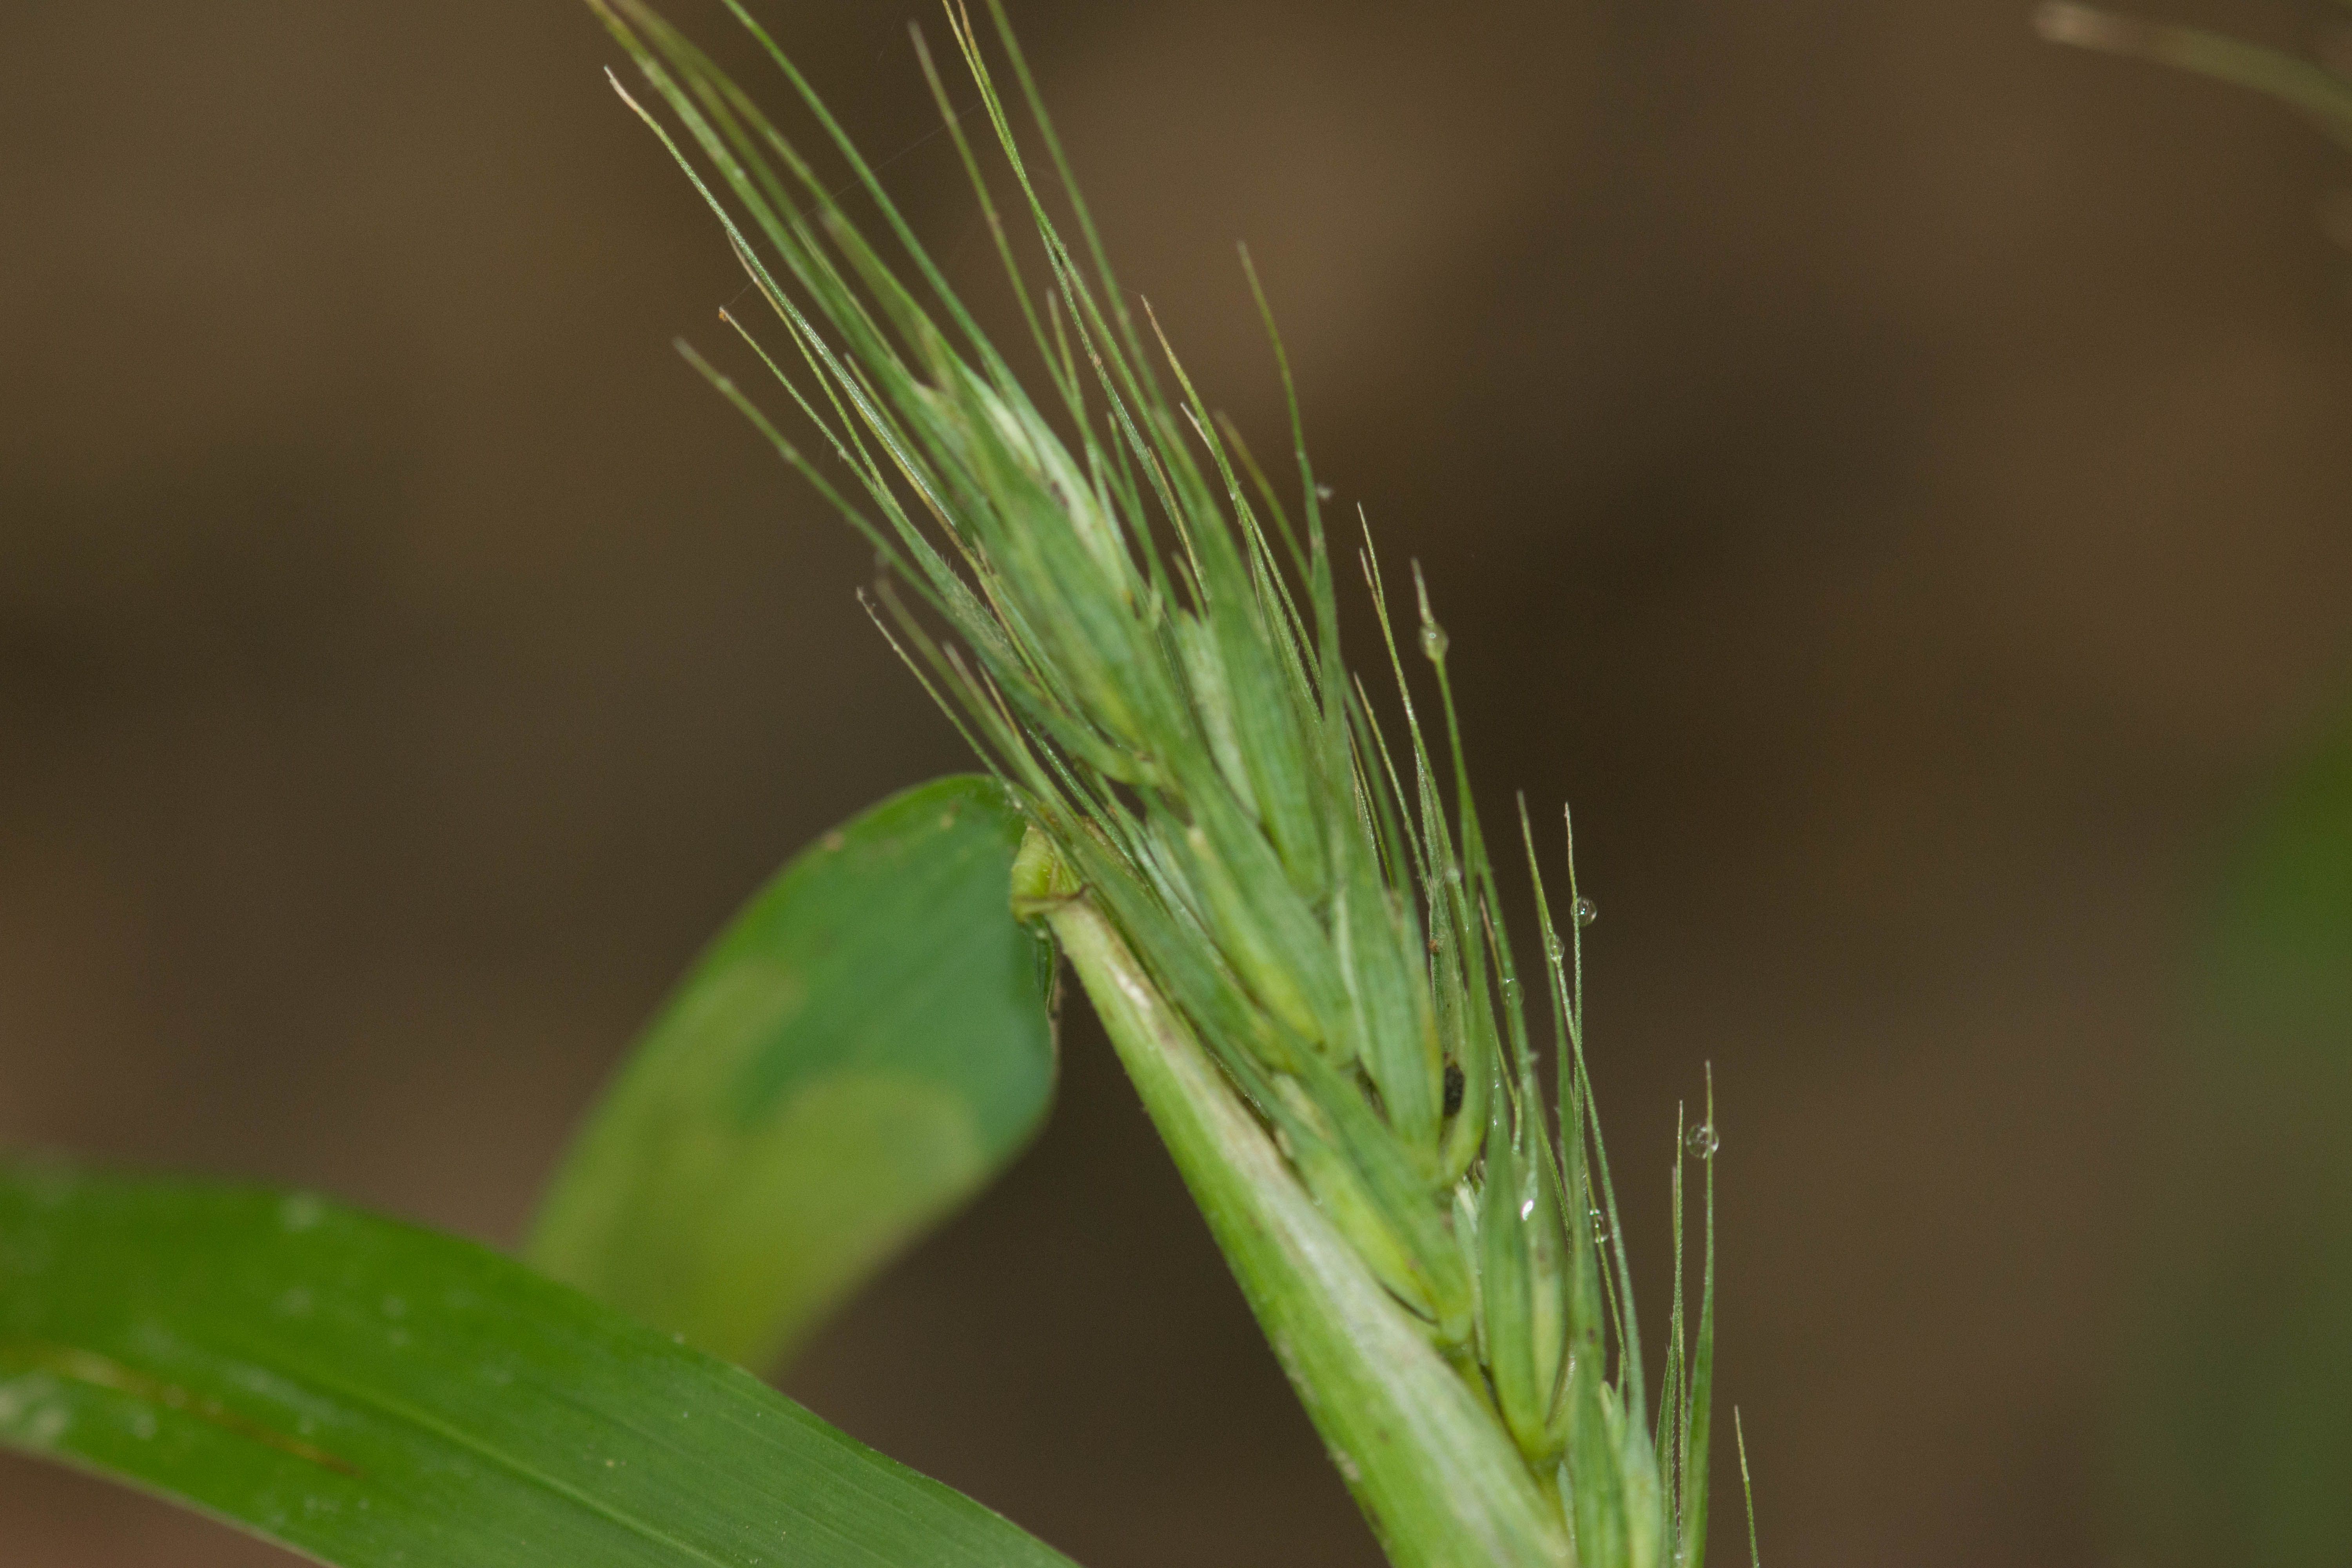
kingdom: Plantae
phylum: Tracheophyta
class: Liliopsida
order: Poales
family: Poaceae
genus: Elymus
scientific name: Elymus virginicus
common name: Common eastern wildrye
